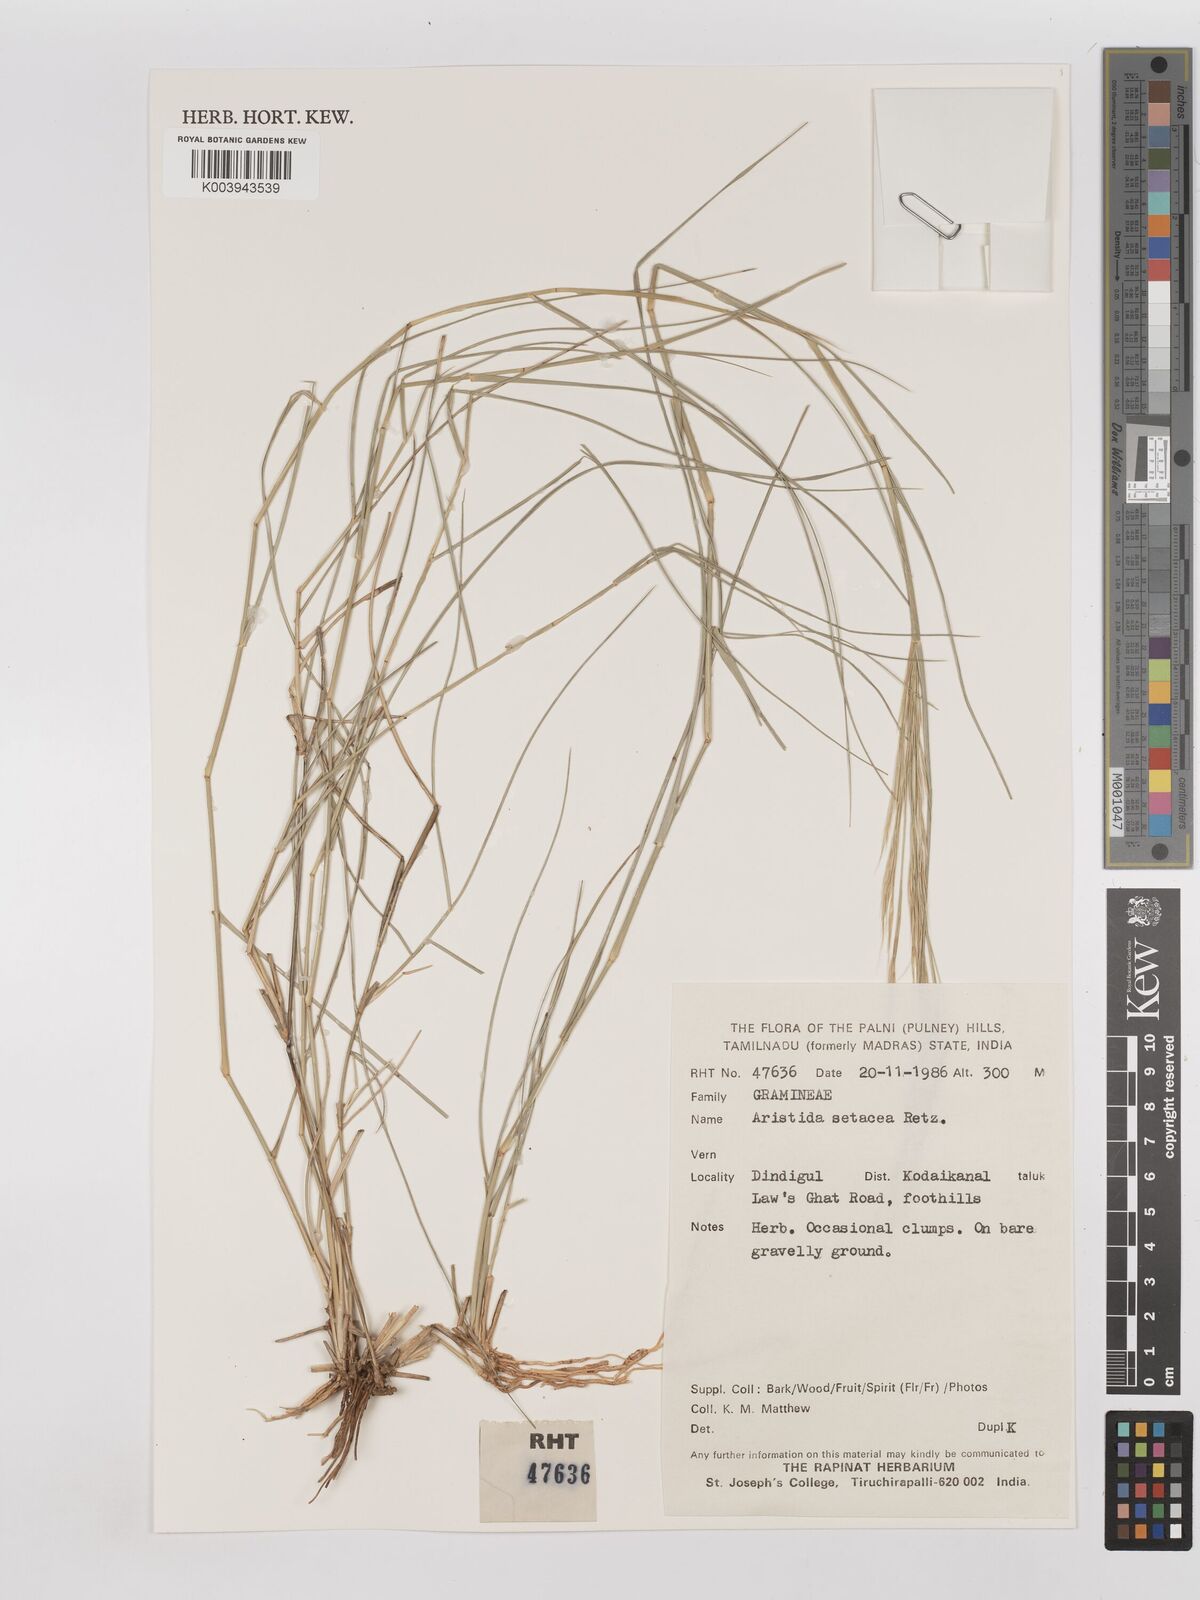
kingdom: Plantae
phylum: Tracheophyta
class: Liliopsida
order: Poales
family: Poaceae
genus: Aristida
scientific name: Aristida setacea
